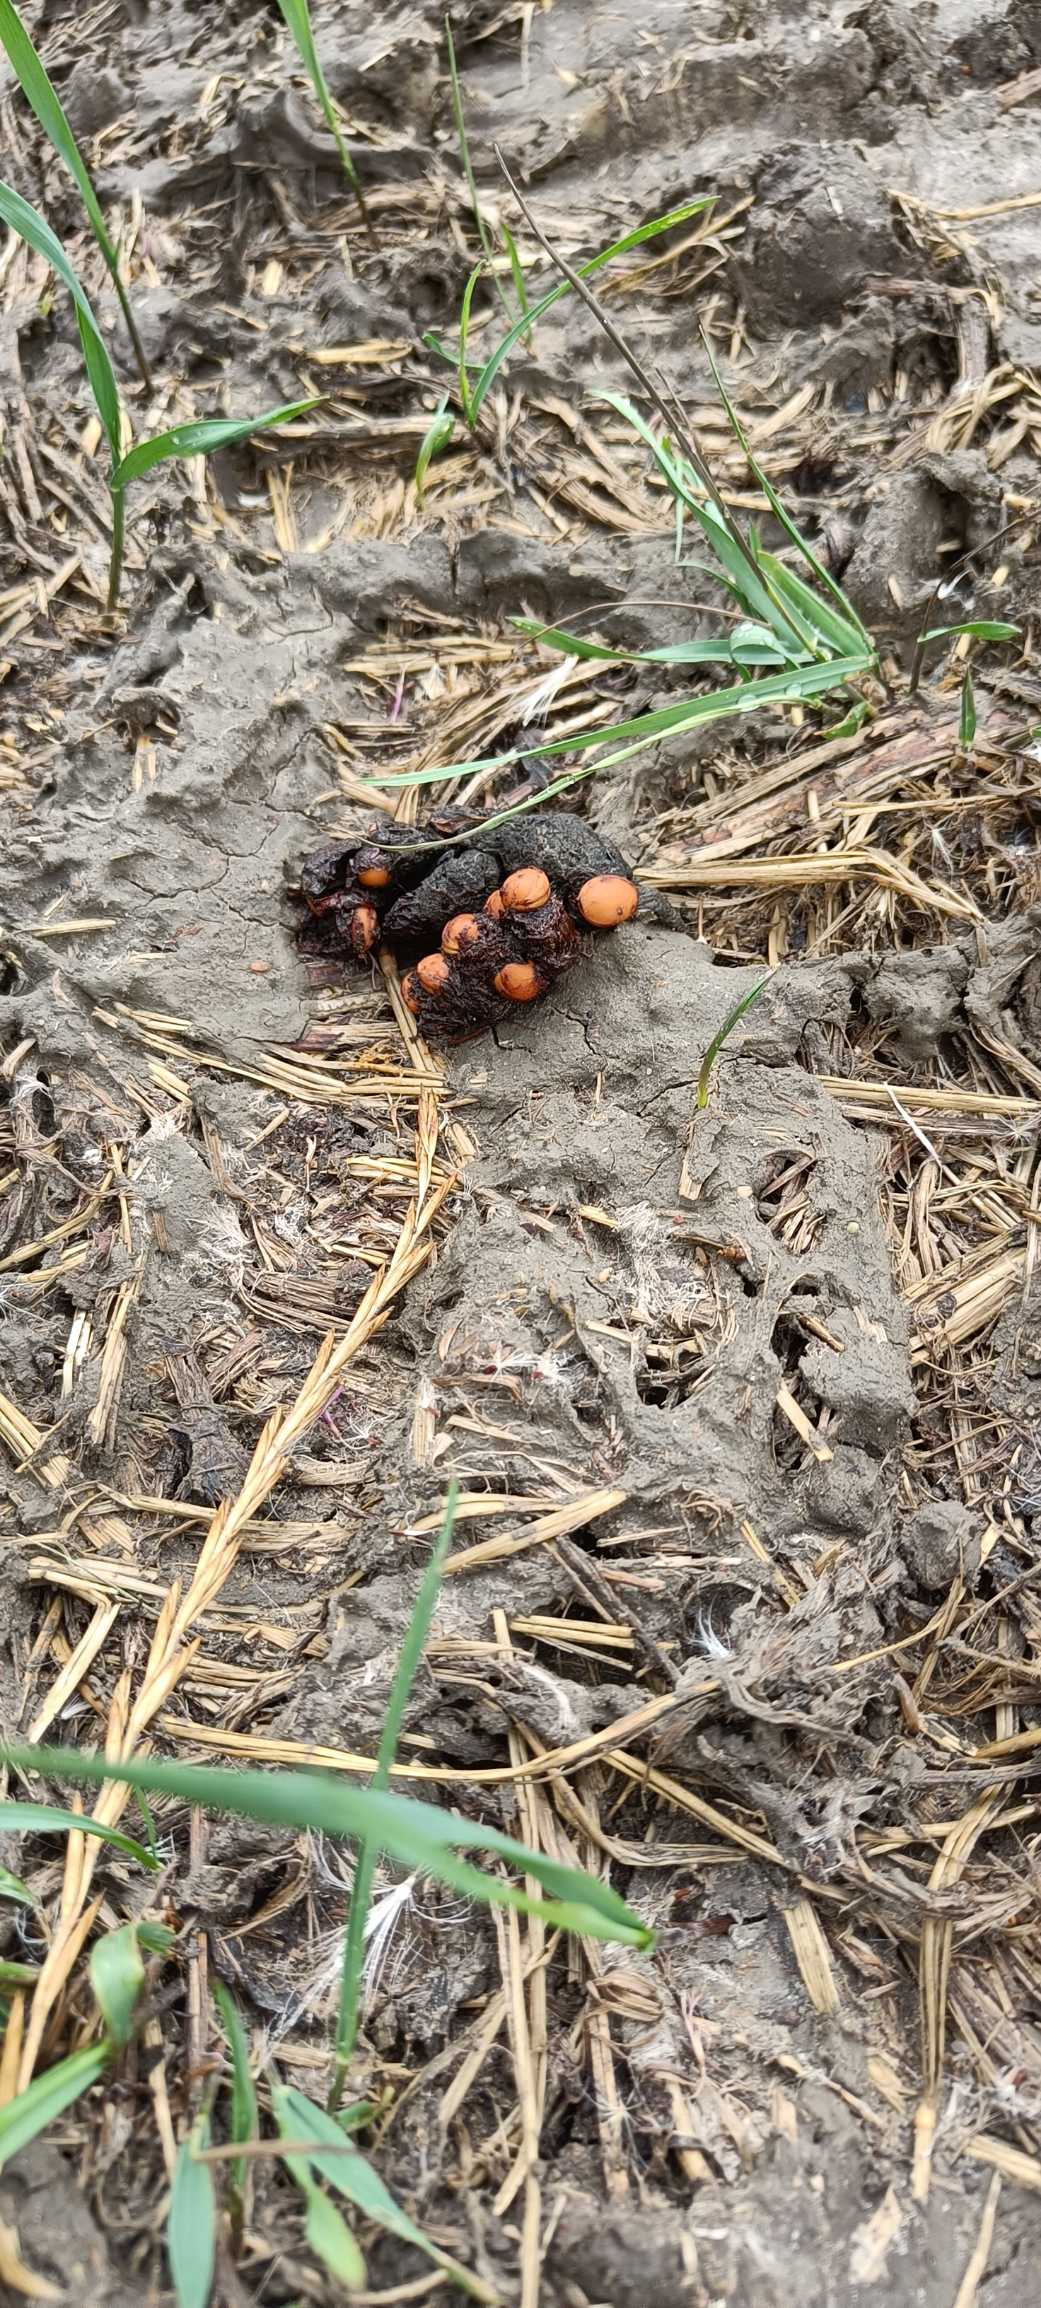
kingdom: Animalia
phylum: Chordata
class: Mammalia
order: Carnivora
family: Canidae
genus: Vulpes
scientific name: Vulpes vulpes
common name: Ræv
